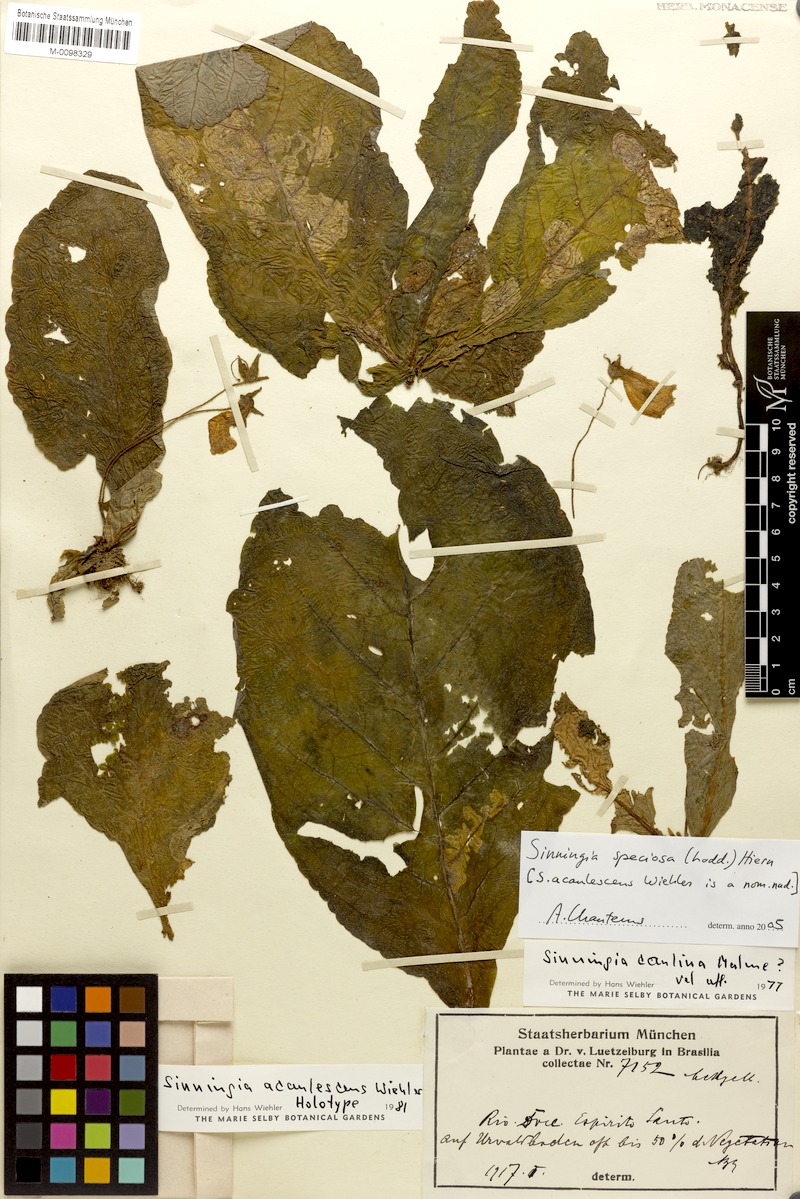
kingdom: Plantae
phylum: Tracheophyta
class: Magnoliopsida
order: Lamiales
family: Gesneriaceae
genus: Sinningia
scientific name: Sinningia richii
